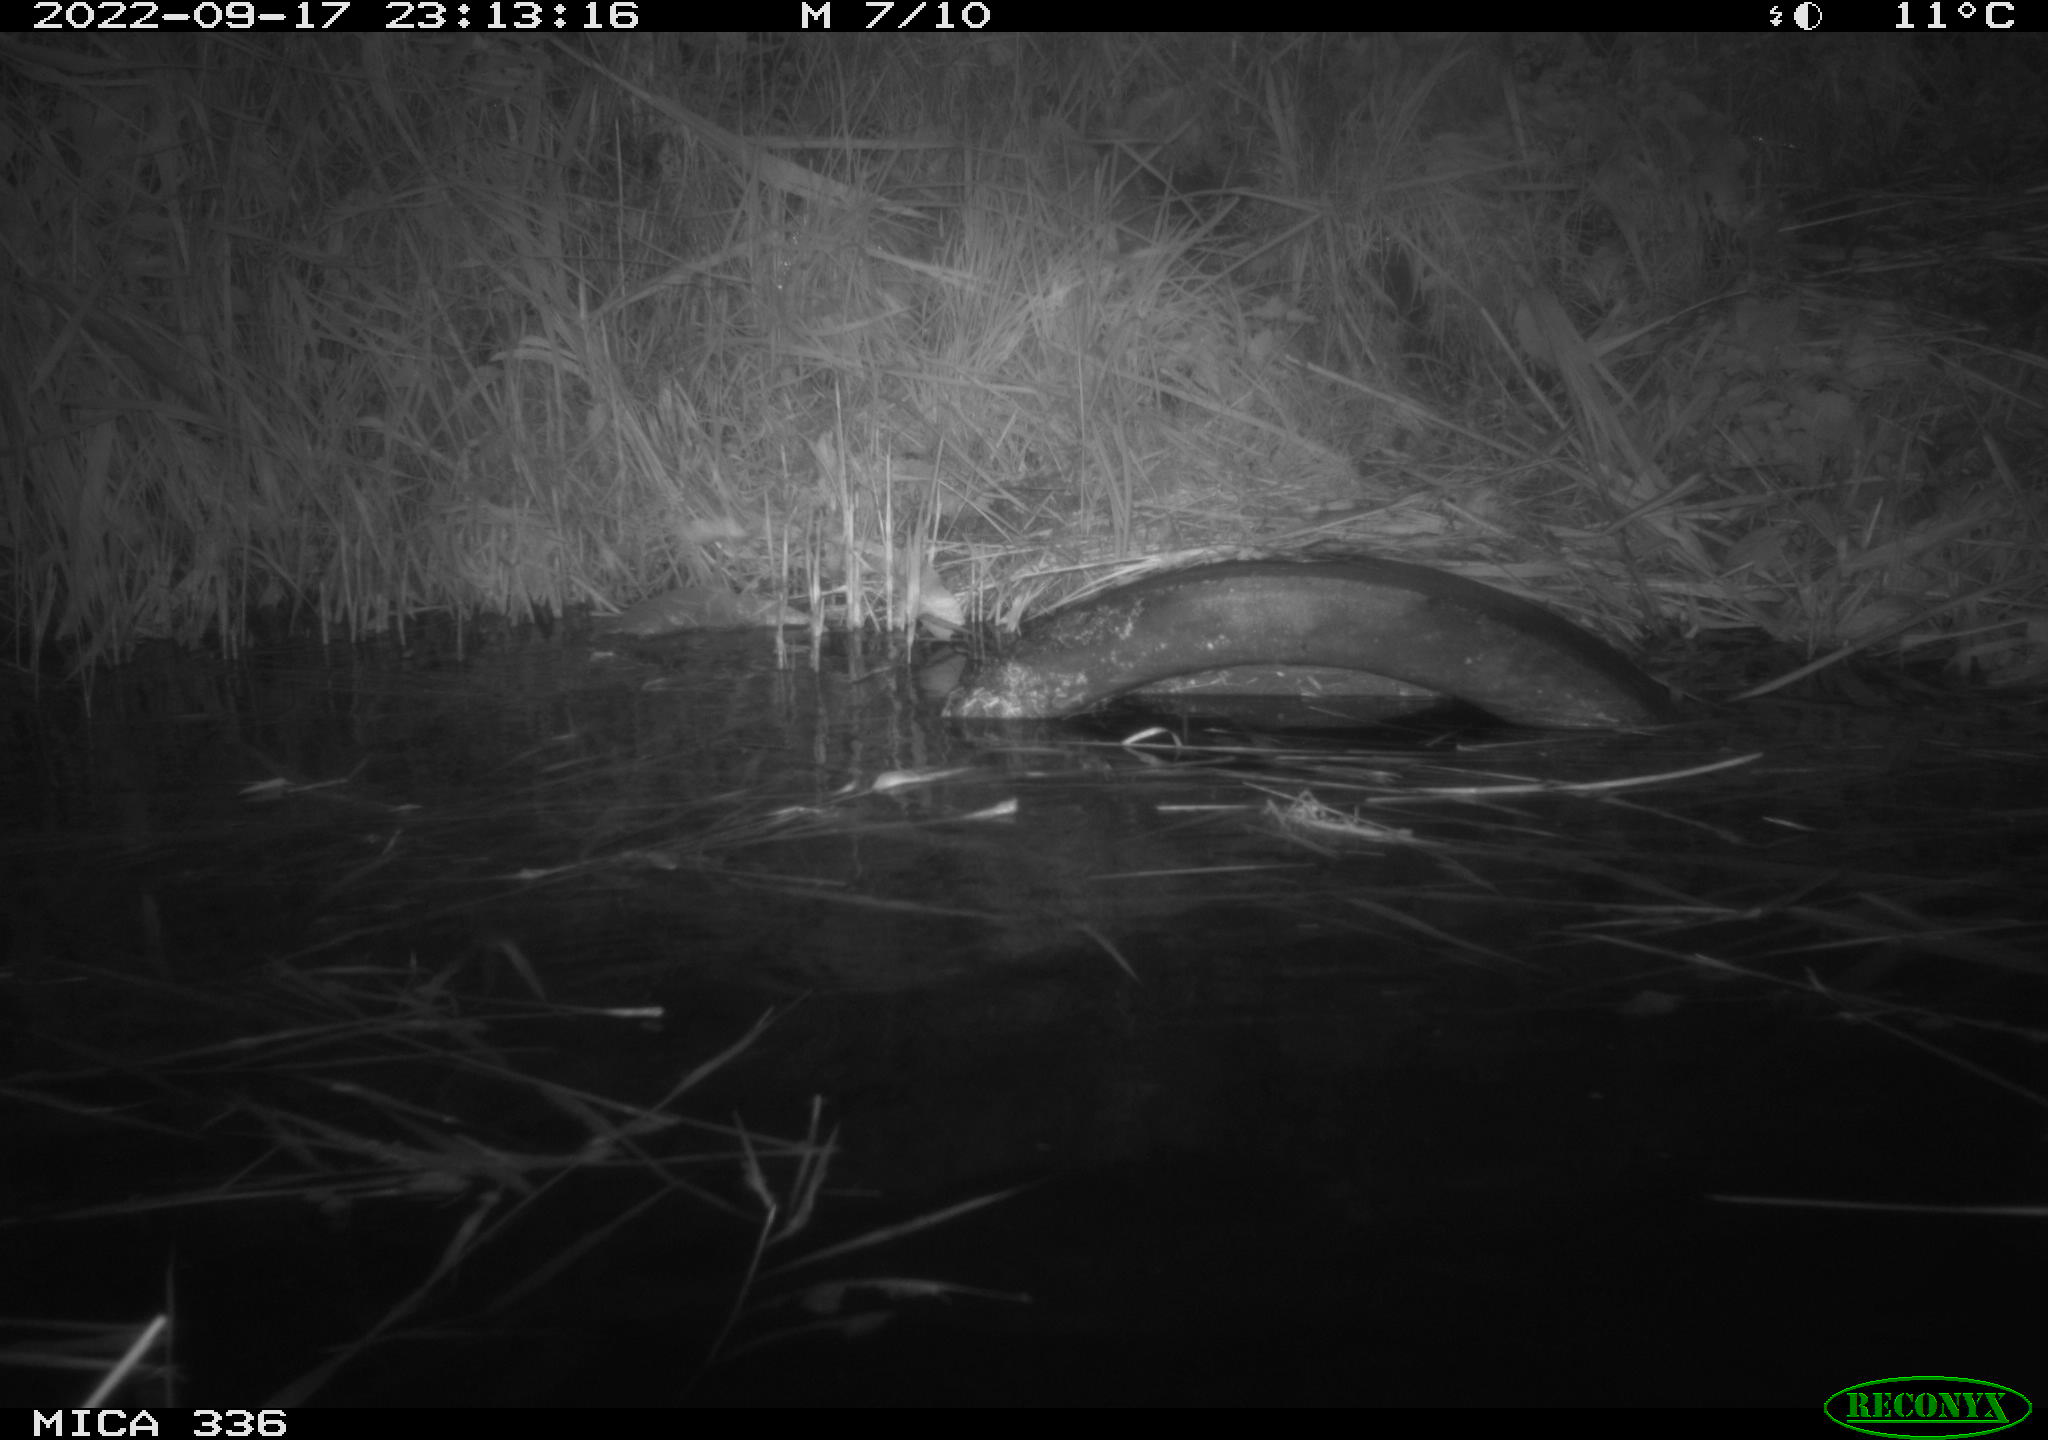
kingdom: Animalia
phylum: Chordata
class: Mammalia
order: Rodentia
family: Muridae
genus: Rattus
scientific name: Rattus norvegicus
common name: Brown rat
